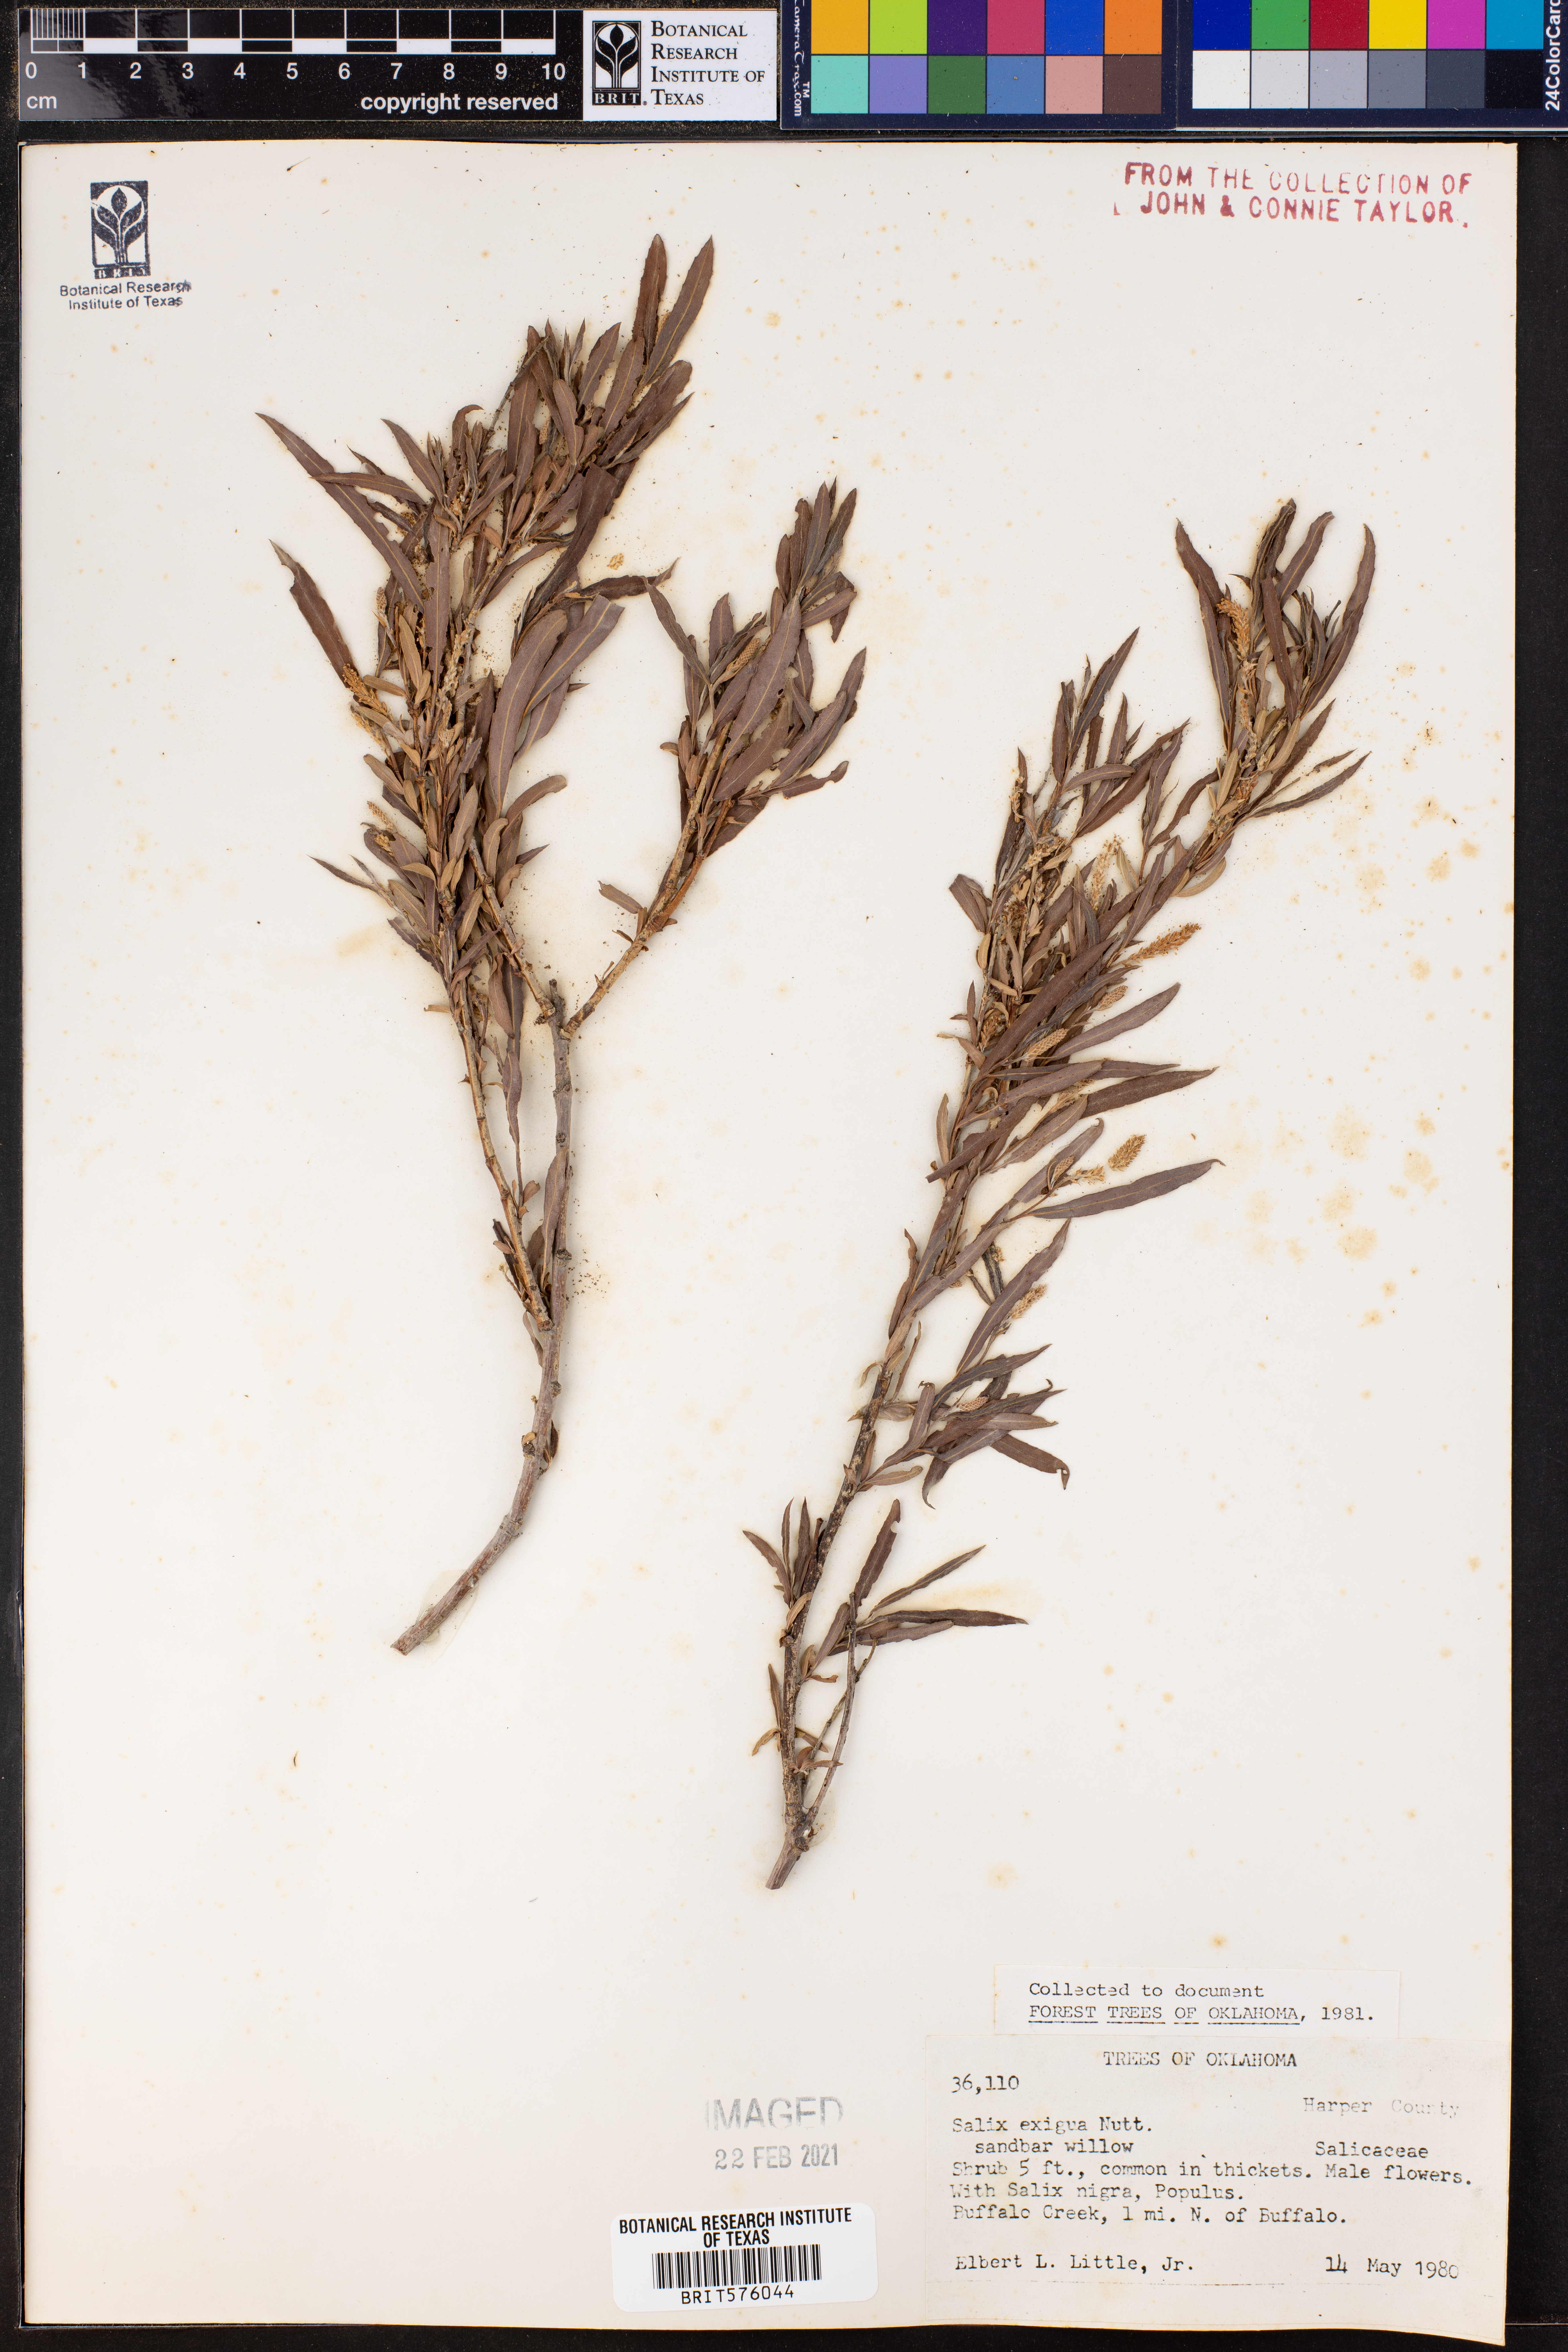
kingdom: Plantae
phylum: Tracheophyta
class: Magnoliopsida
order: Malpighiales
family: Salicaceae
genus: Salix
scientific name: Salix exigua
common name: Coyote willow
